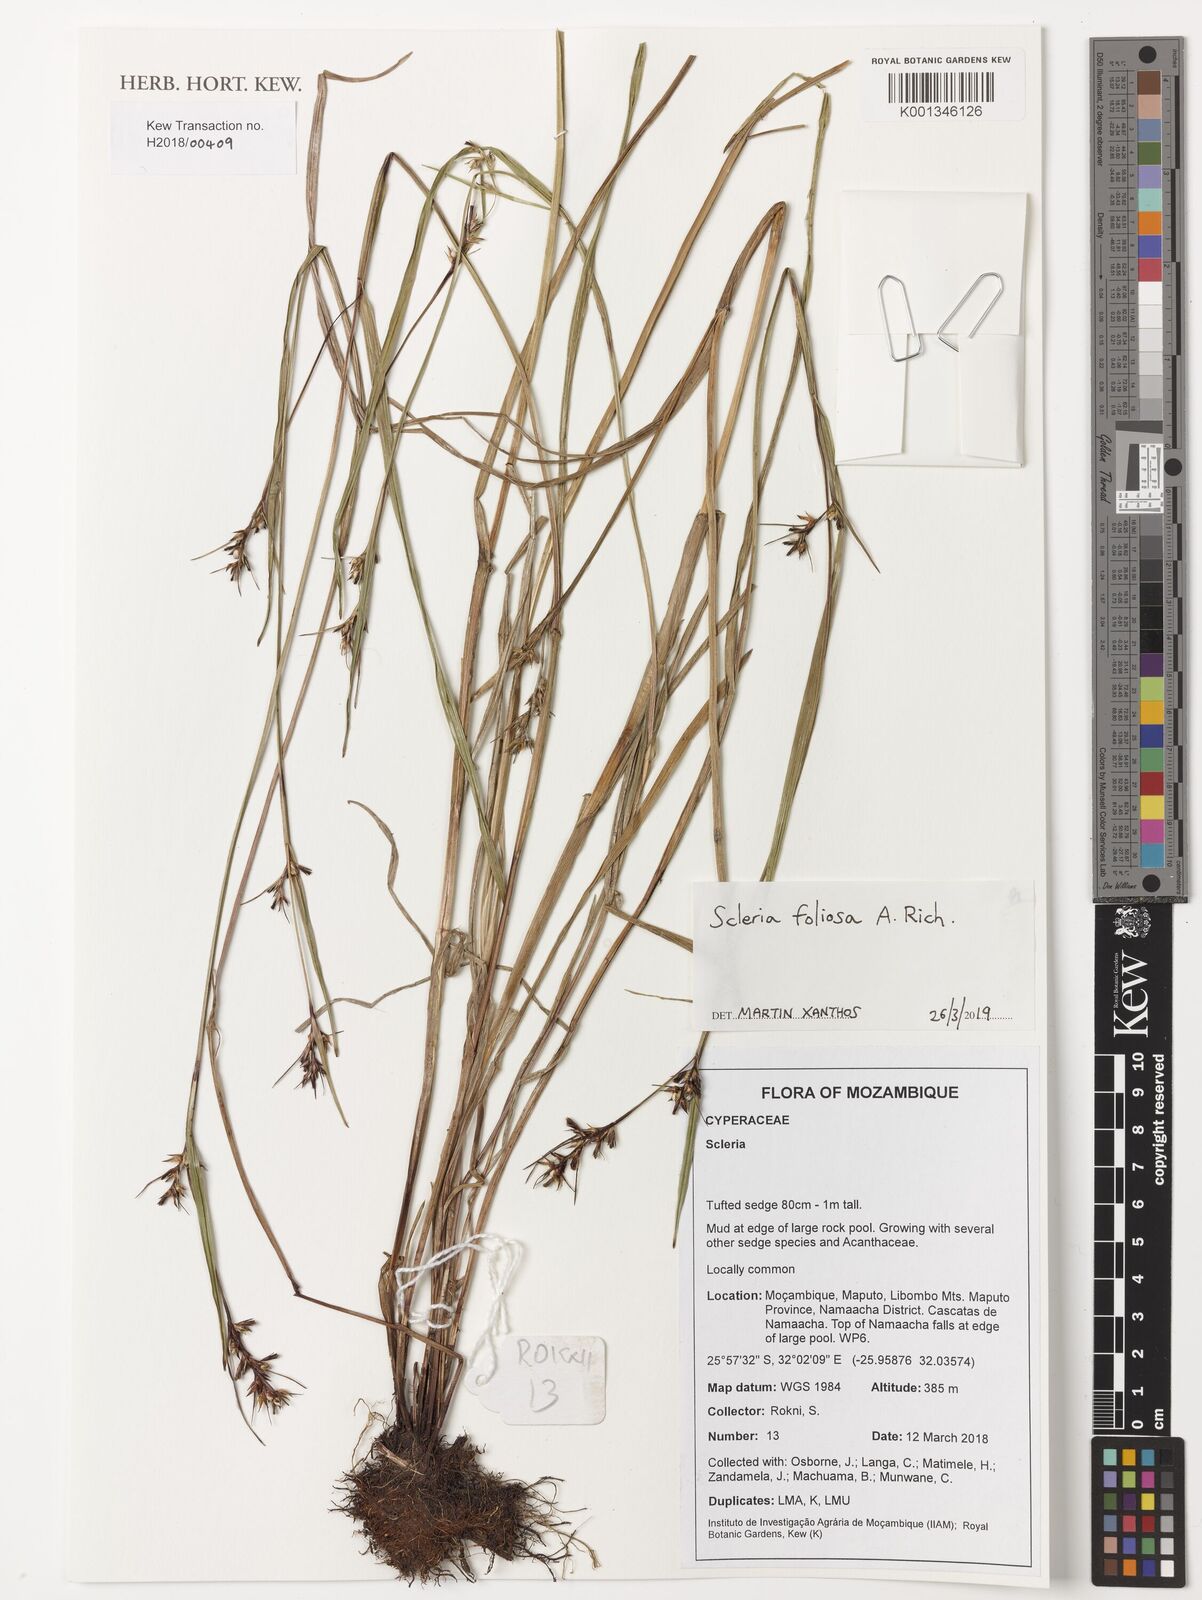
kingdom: Plantae
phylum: Tracheophyta
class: Liliopsida
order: Poales
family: Cyperaceae
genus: Scleria
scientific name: Scleria foliosa
